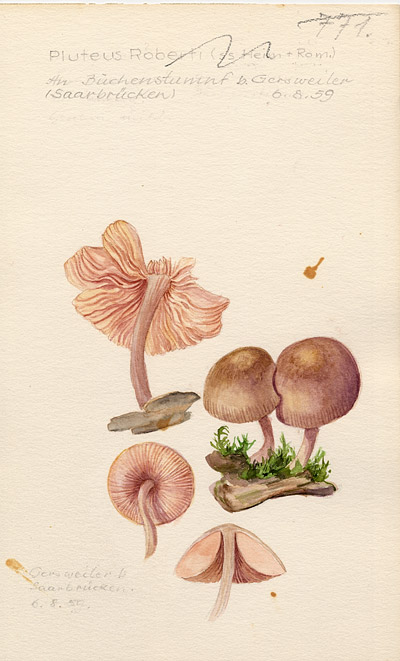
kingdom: Fungi
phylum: Basidiomycota
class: Agaricomycetes
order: Agaricales
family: Pluteaceae
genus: Pluteus
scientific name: Pluteus robertii
